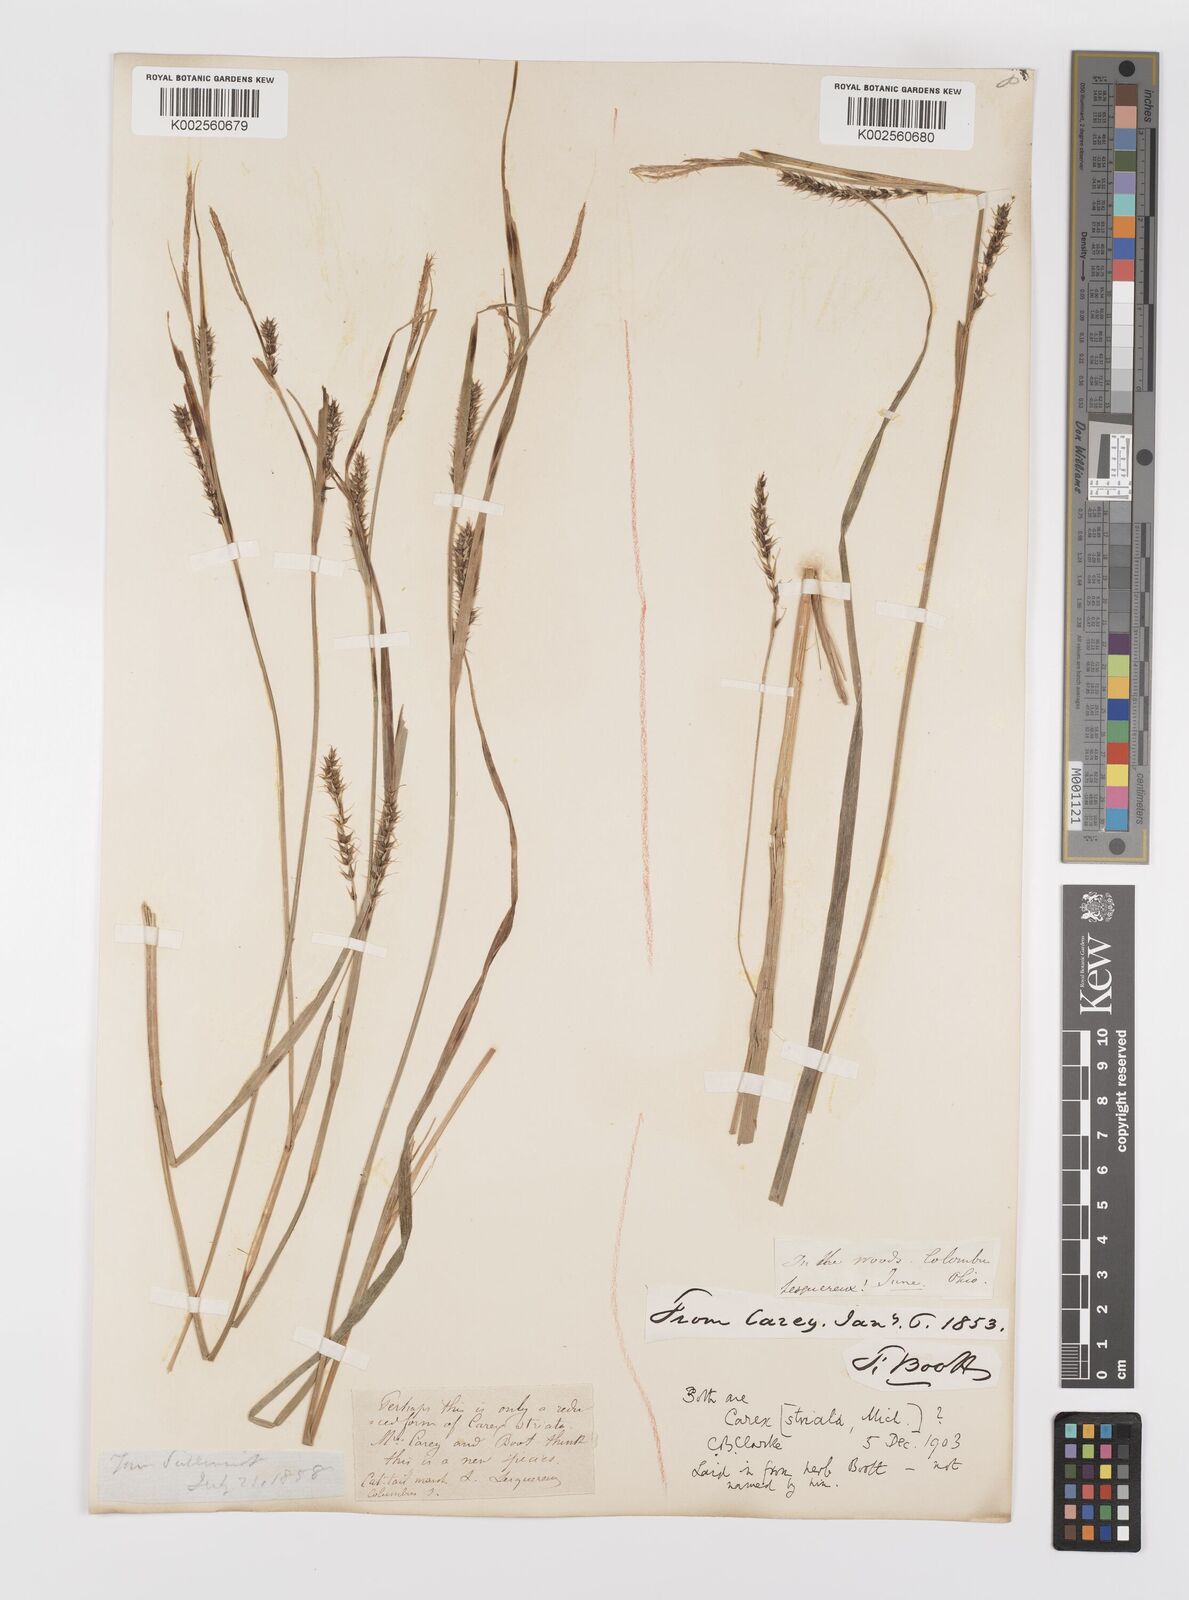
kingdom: Plantae
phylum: Tracheophyta
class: Liliopsida
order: Poales
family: Cyperaceae
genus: Carex
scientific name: Carex striata
